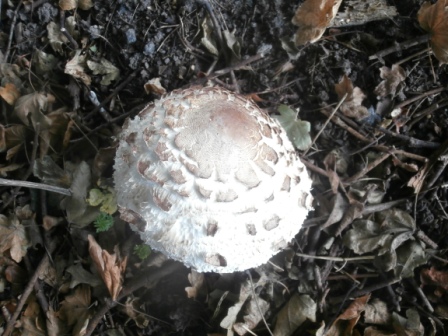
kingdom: Fungi
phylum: Basidiomycota
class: Agaricomycetes
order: Agaricales
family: Agaricaceae
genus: Chlorophyllum
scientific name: Chlorophyllum rhacodes
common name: ægte rabarberhat
